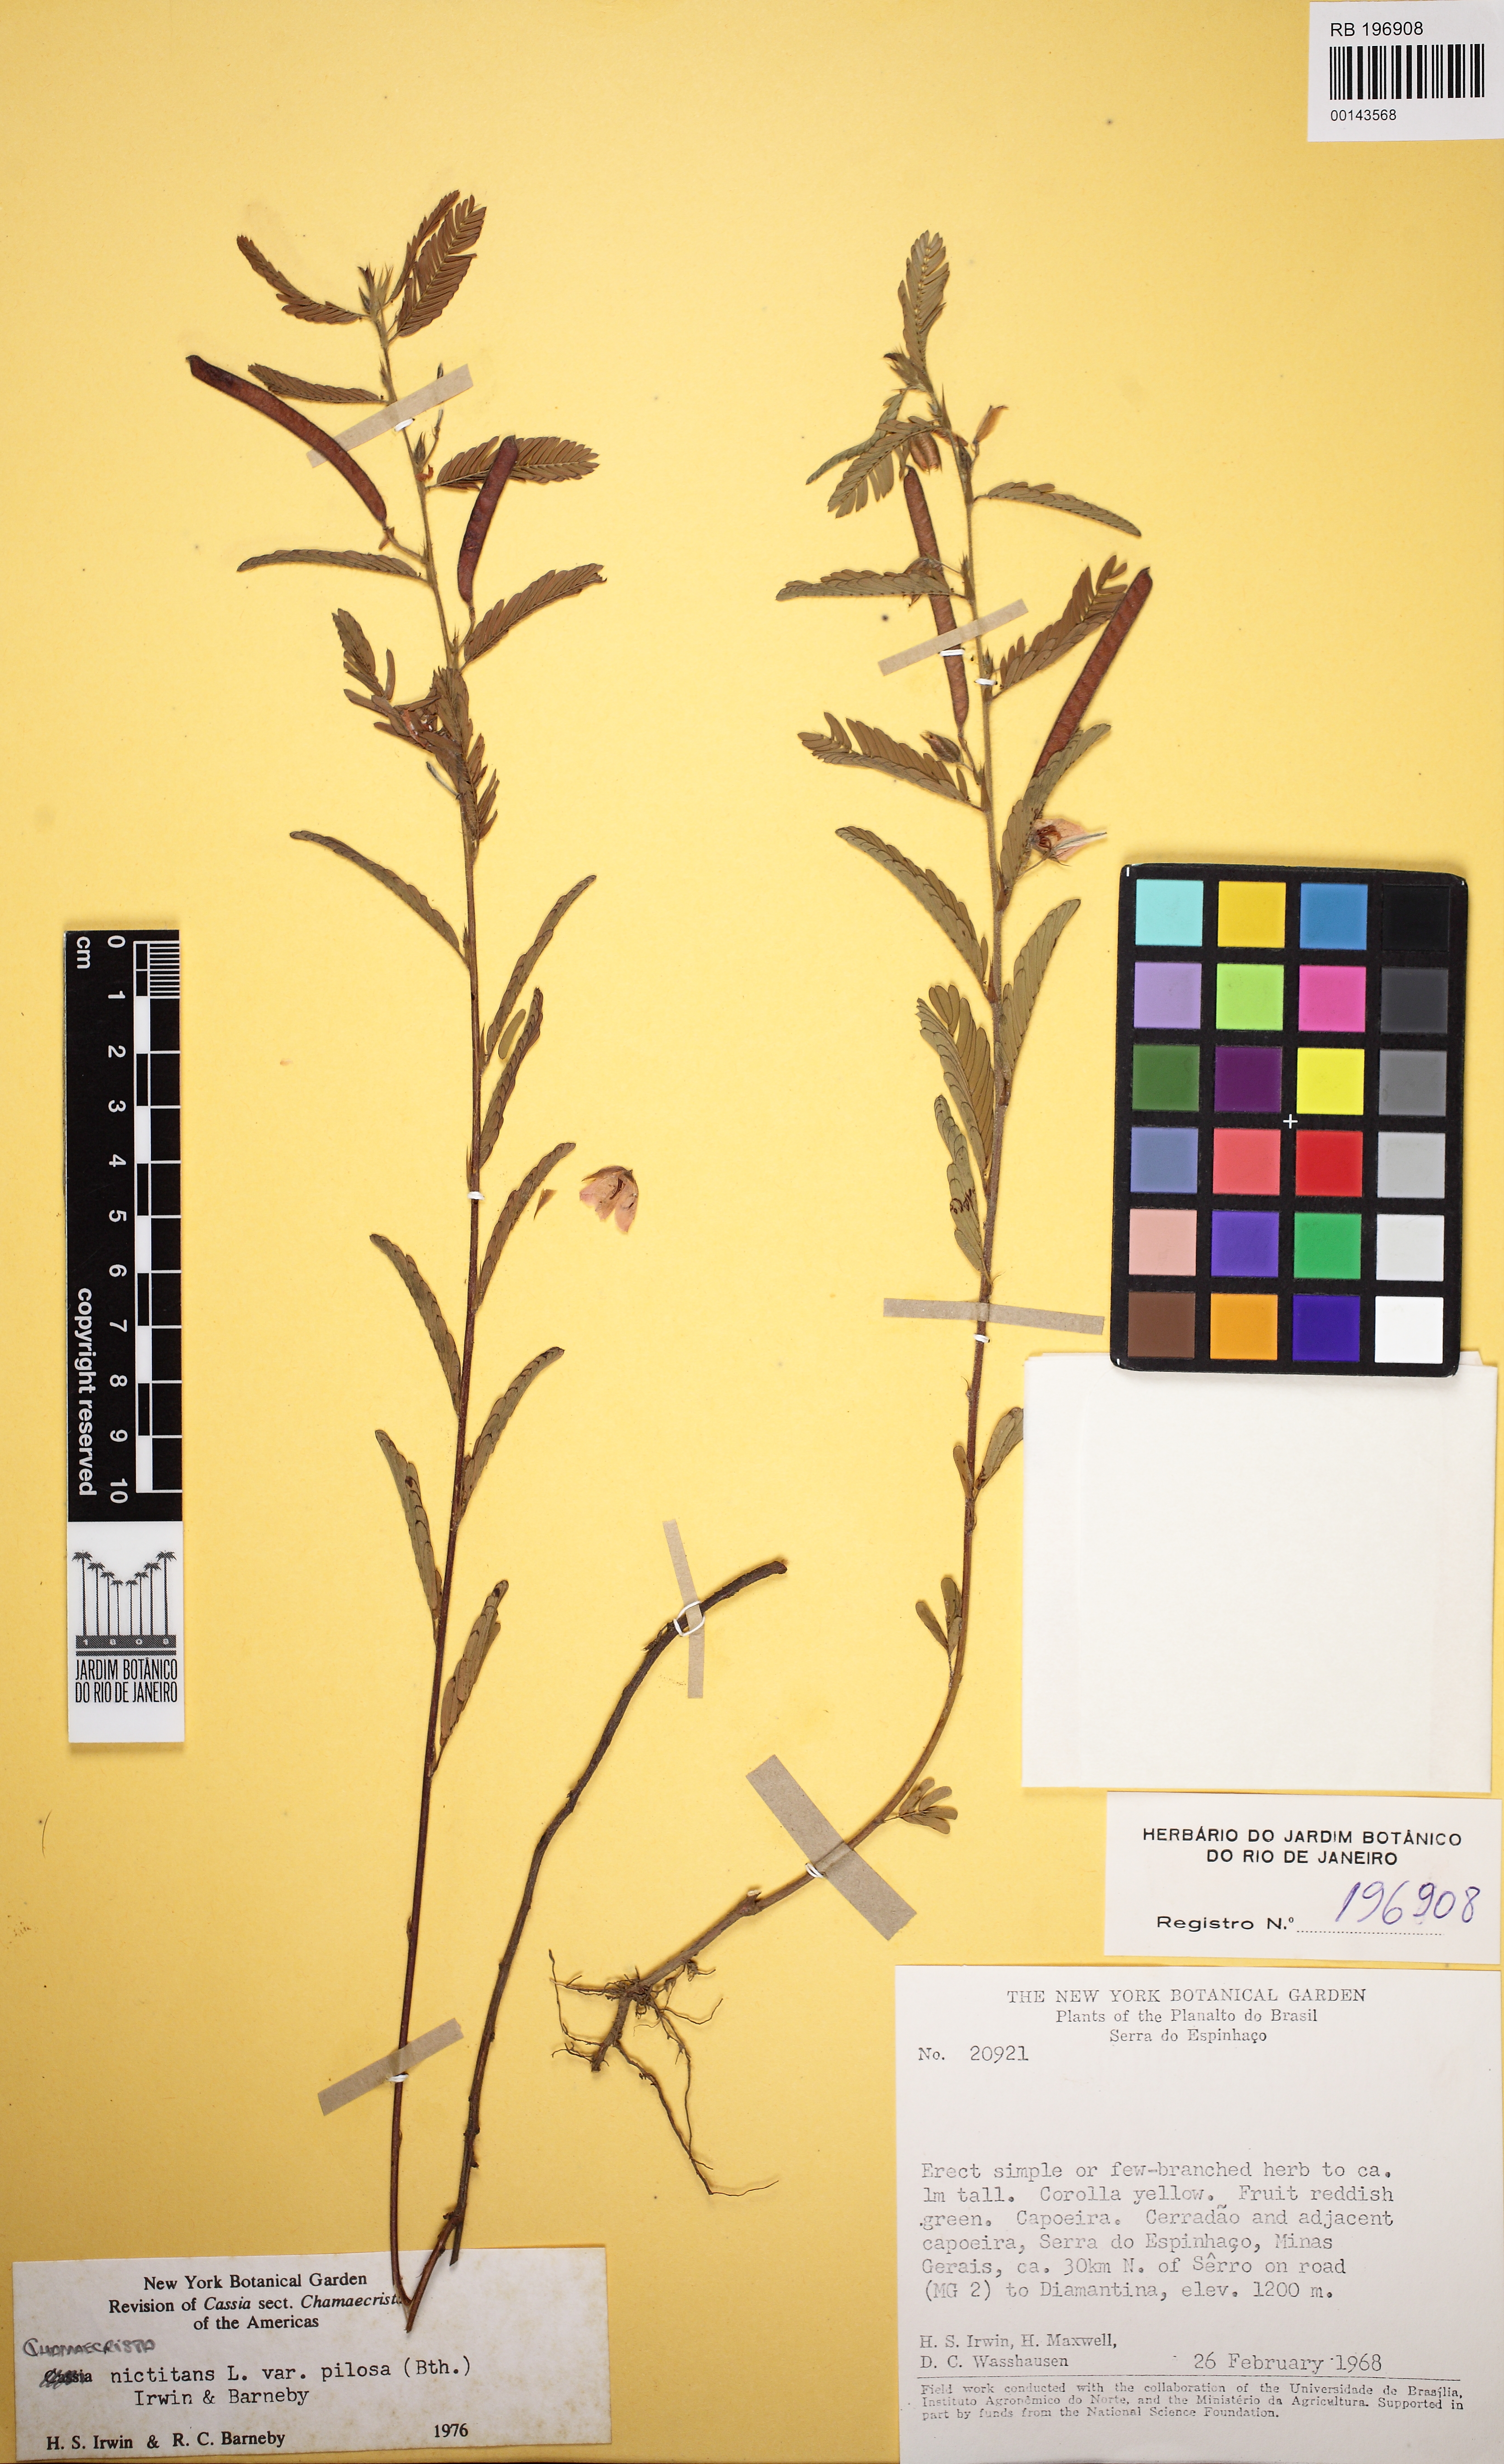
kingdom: Plantae
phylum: Tracheophyta
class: Magnoliopsida
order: Fabales
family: Fabaceae
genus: Chamaecrista
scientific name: Chamaecrista nictitans
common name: Sensitive cassia
